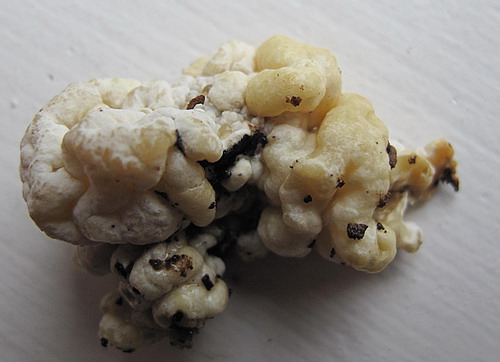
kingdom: Fungi
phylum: Ascomycota
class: Sordariomycetes
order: Xylariales
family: Hypoxylaceae
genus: Nodulisporium
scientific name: Nodulisporium cecidiogenes
